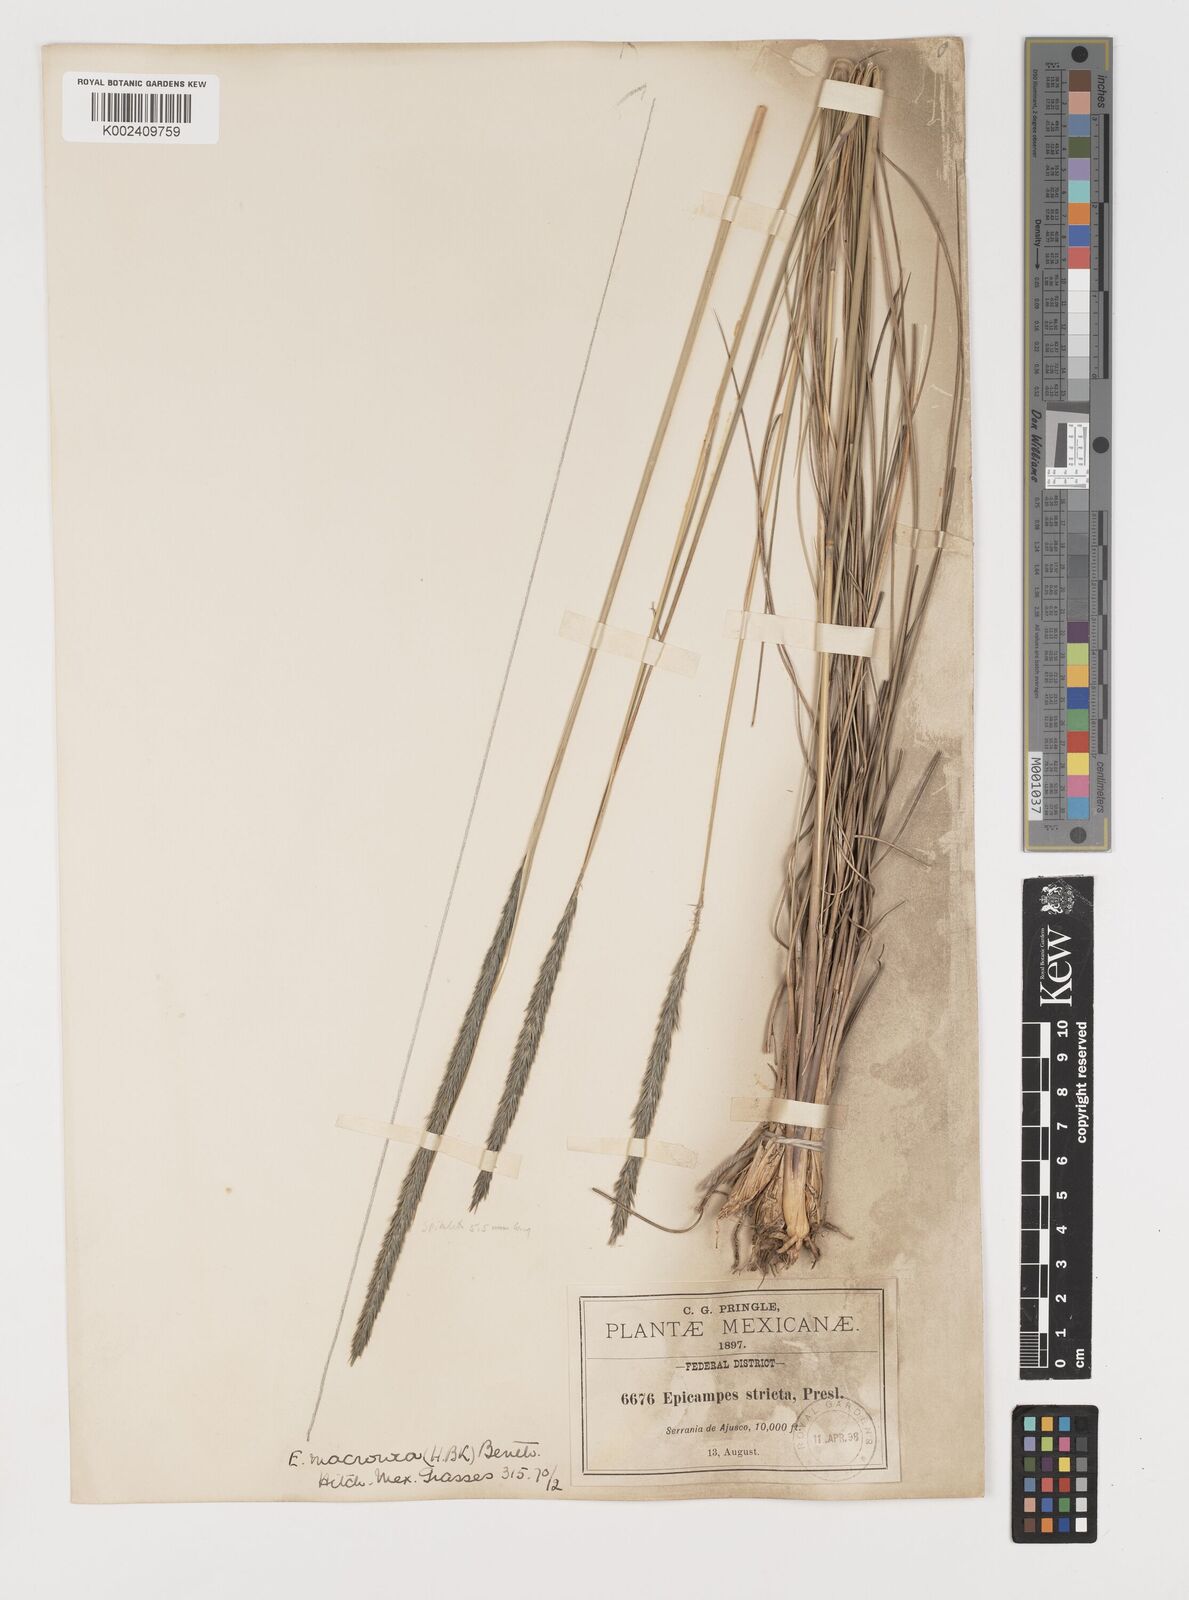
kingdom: Plantae
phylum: Tracheophyta
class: Liliopsida
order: Poales
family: Poaceae
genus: Muhlenbergia
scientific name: Muhlenbergia nigra
